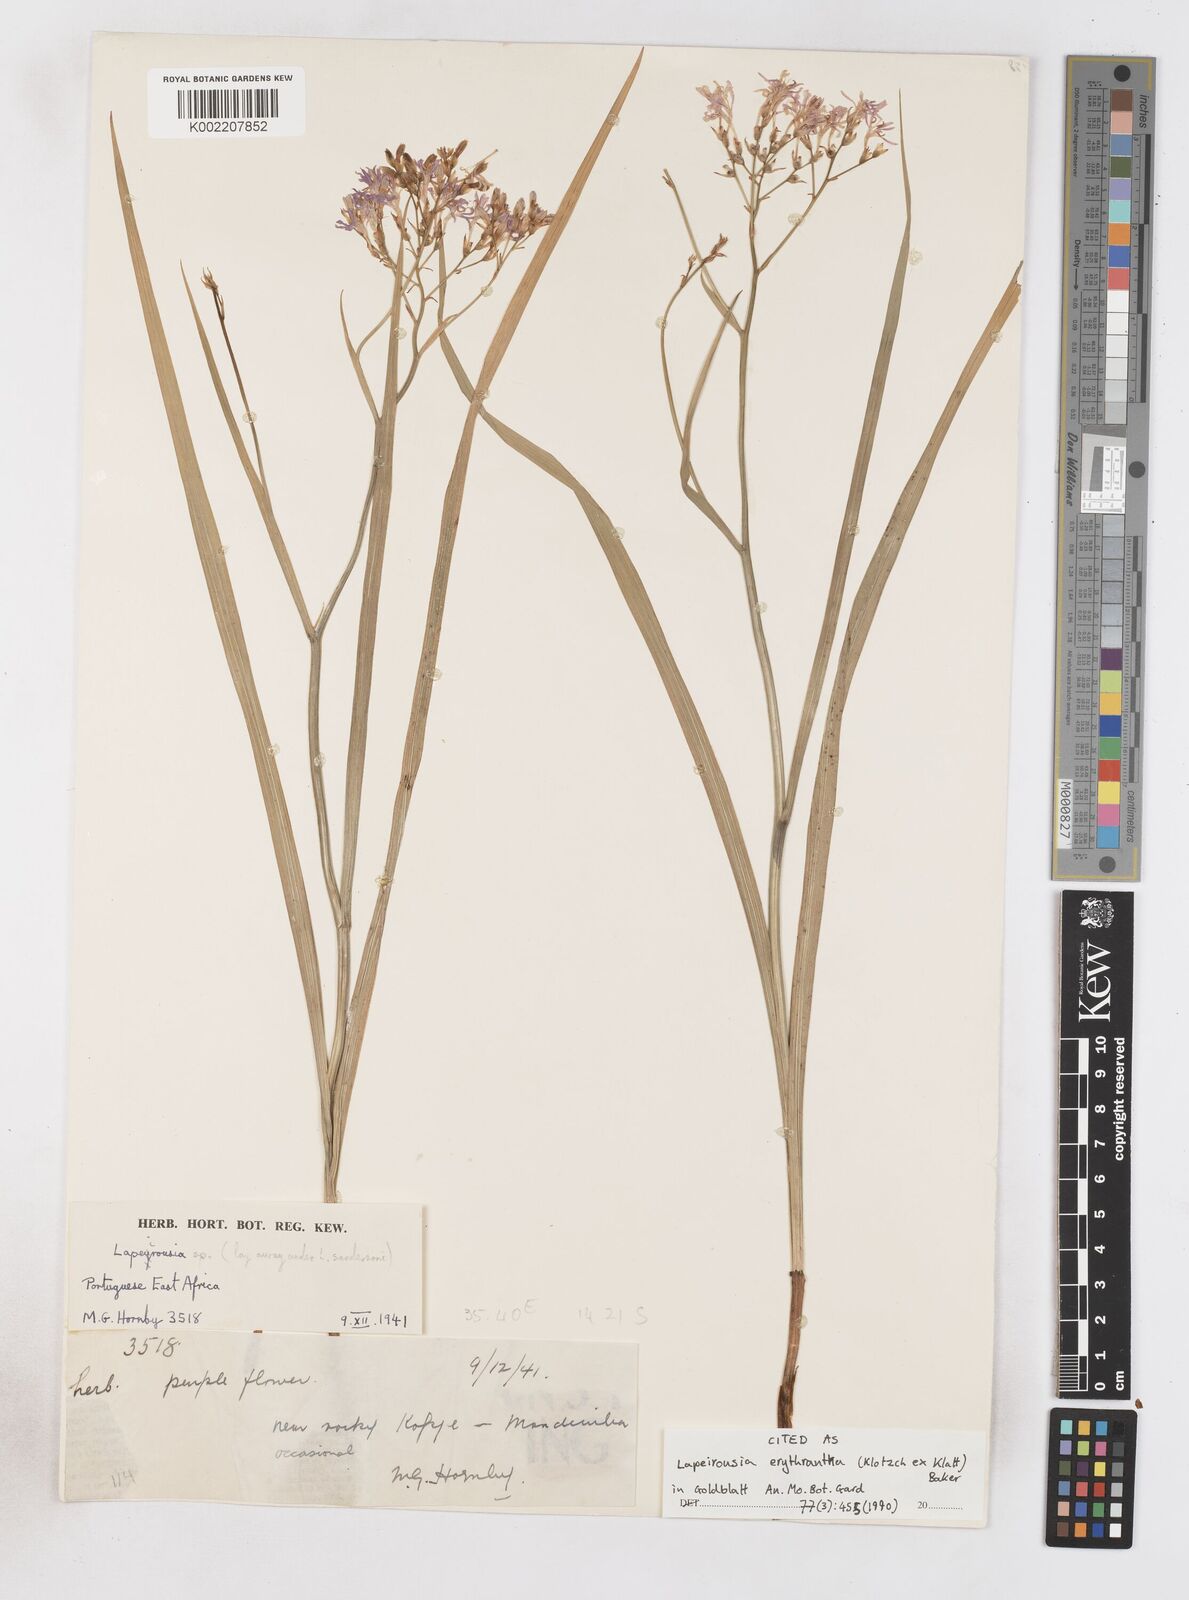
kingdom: Plantae
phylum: Tracheophyta
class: Liliopsida
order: Asparagales
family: Iridaceae
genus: Afrosolen
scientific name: Afrosolen erythranthus
